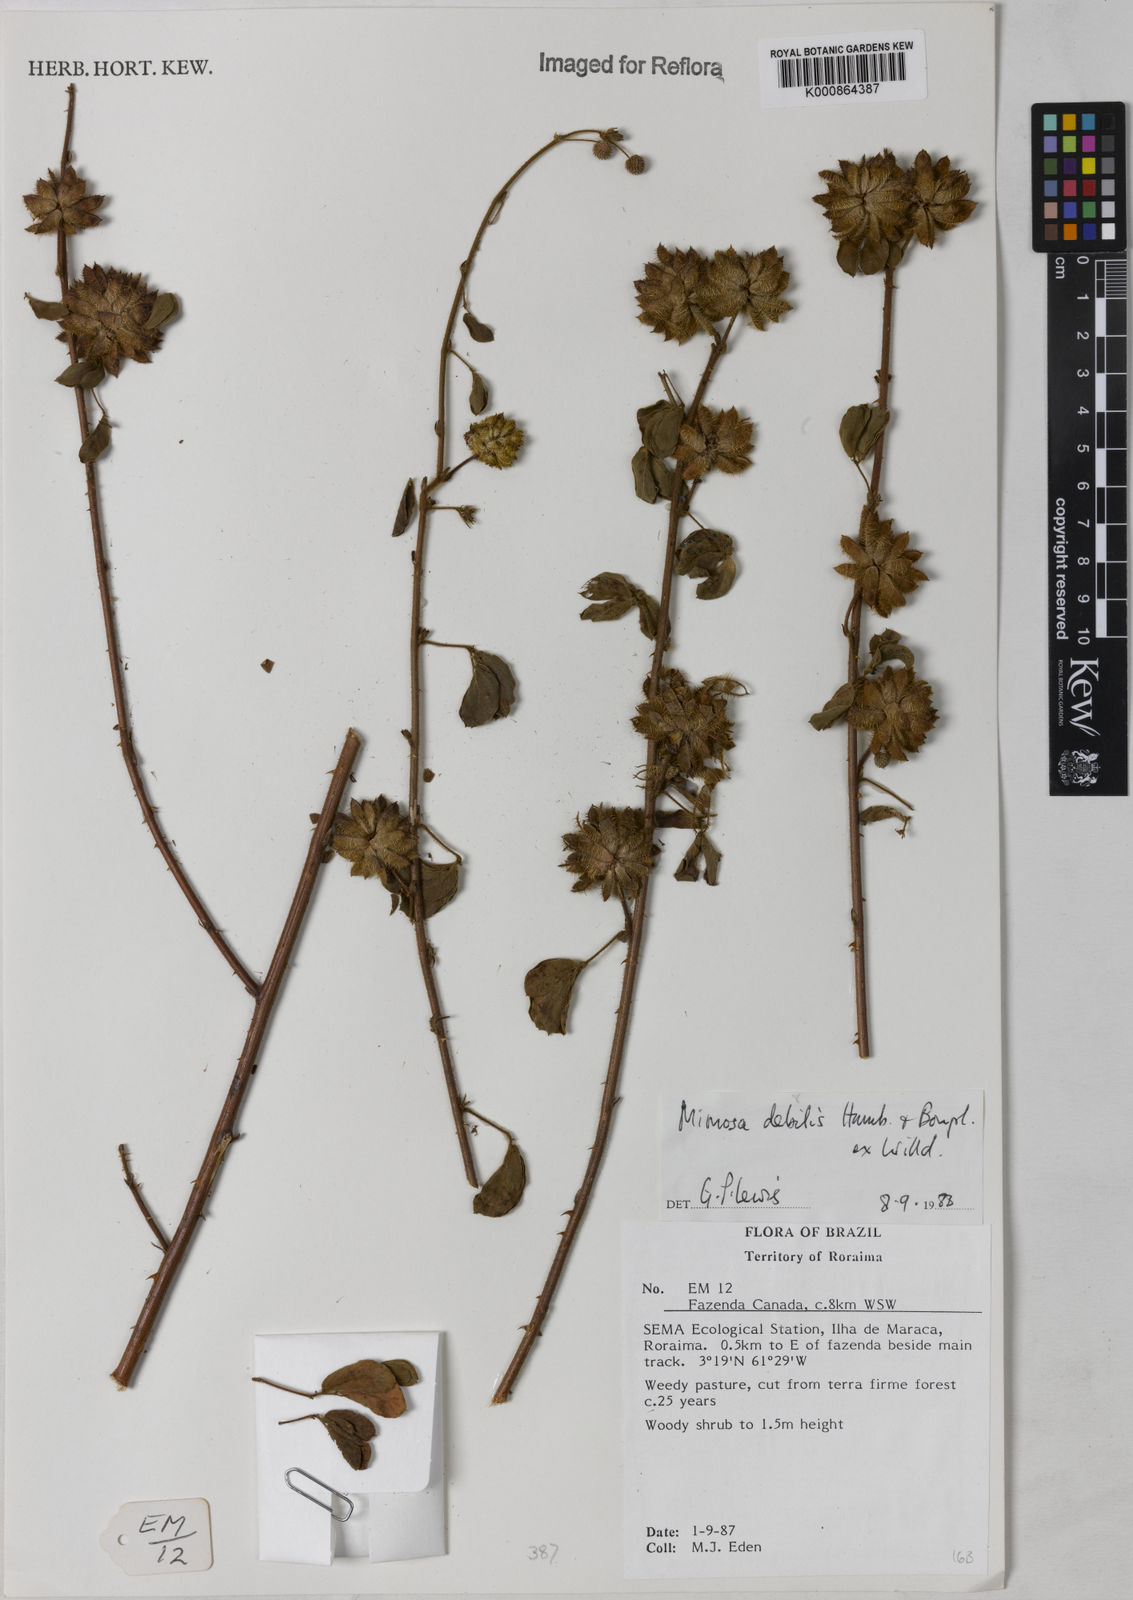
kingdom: Plantae
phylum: Tracheophyta
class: Magnoliopsida
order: Fabales
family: Fabaceae
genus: Mimosa
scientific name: Mimosa
